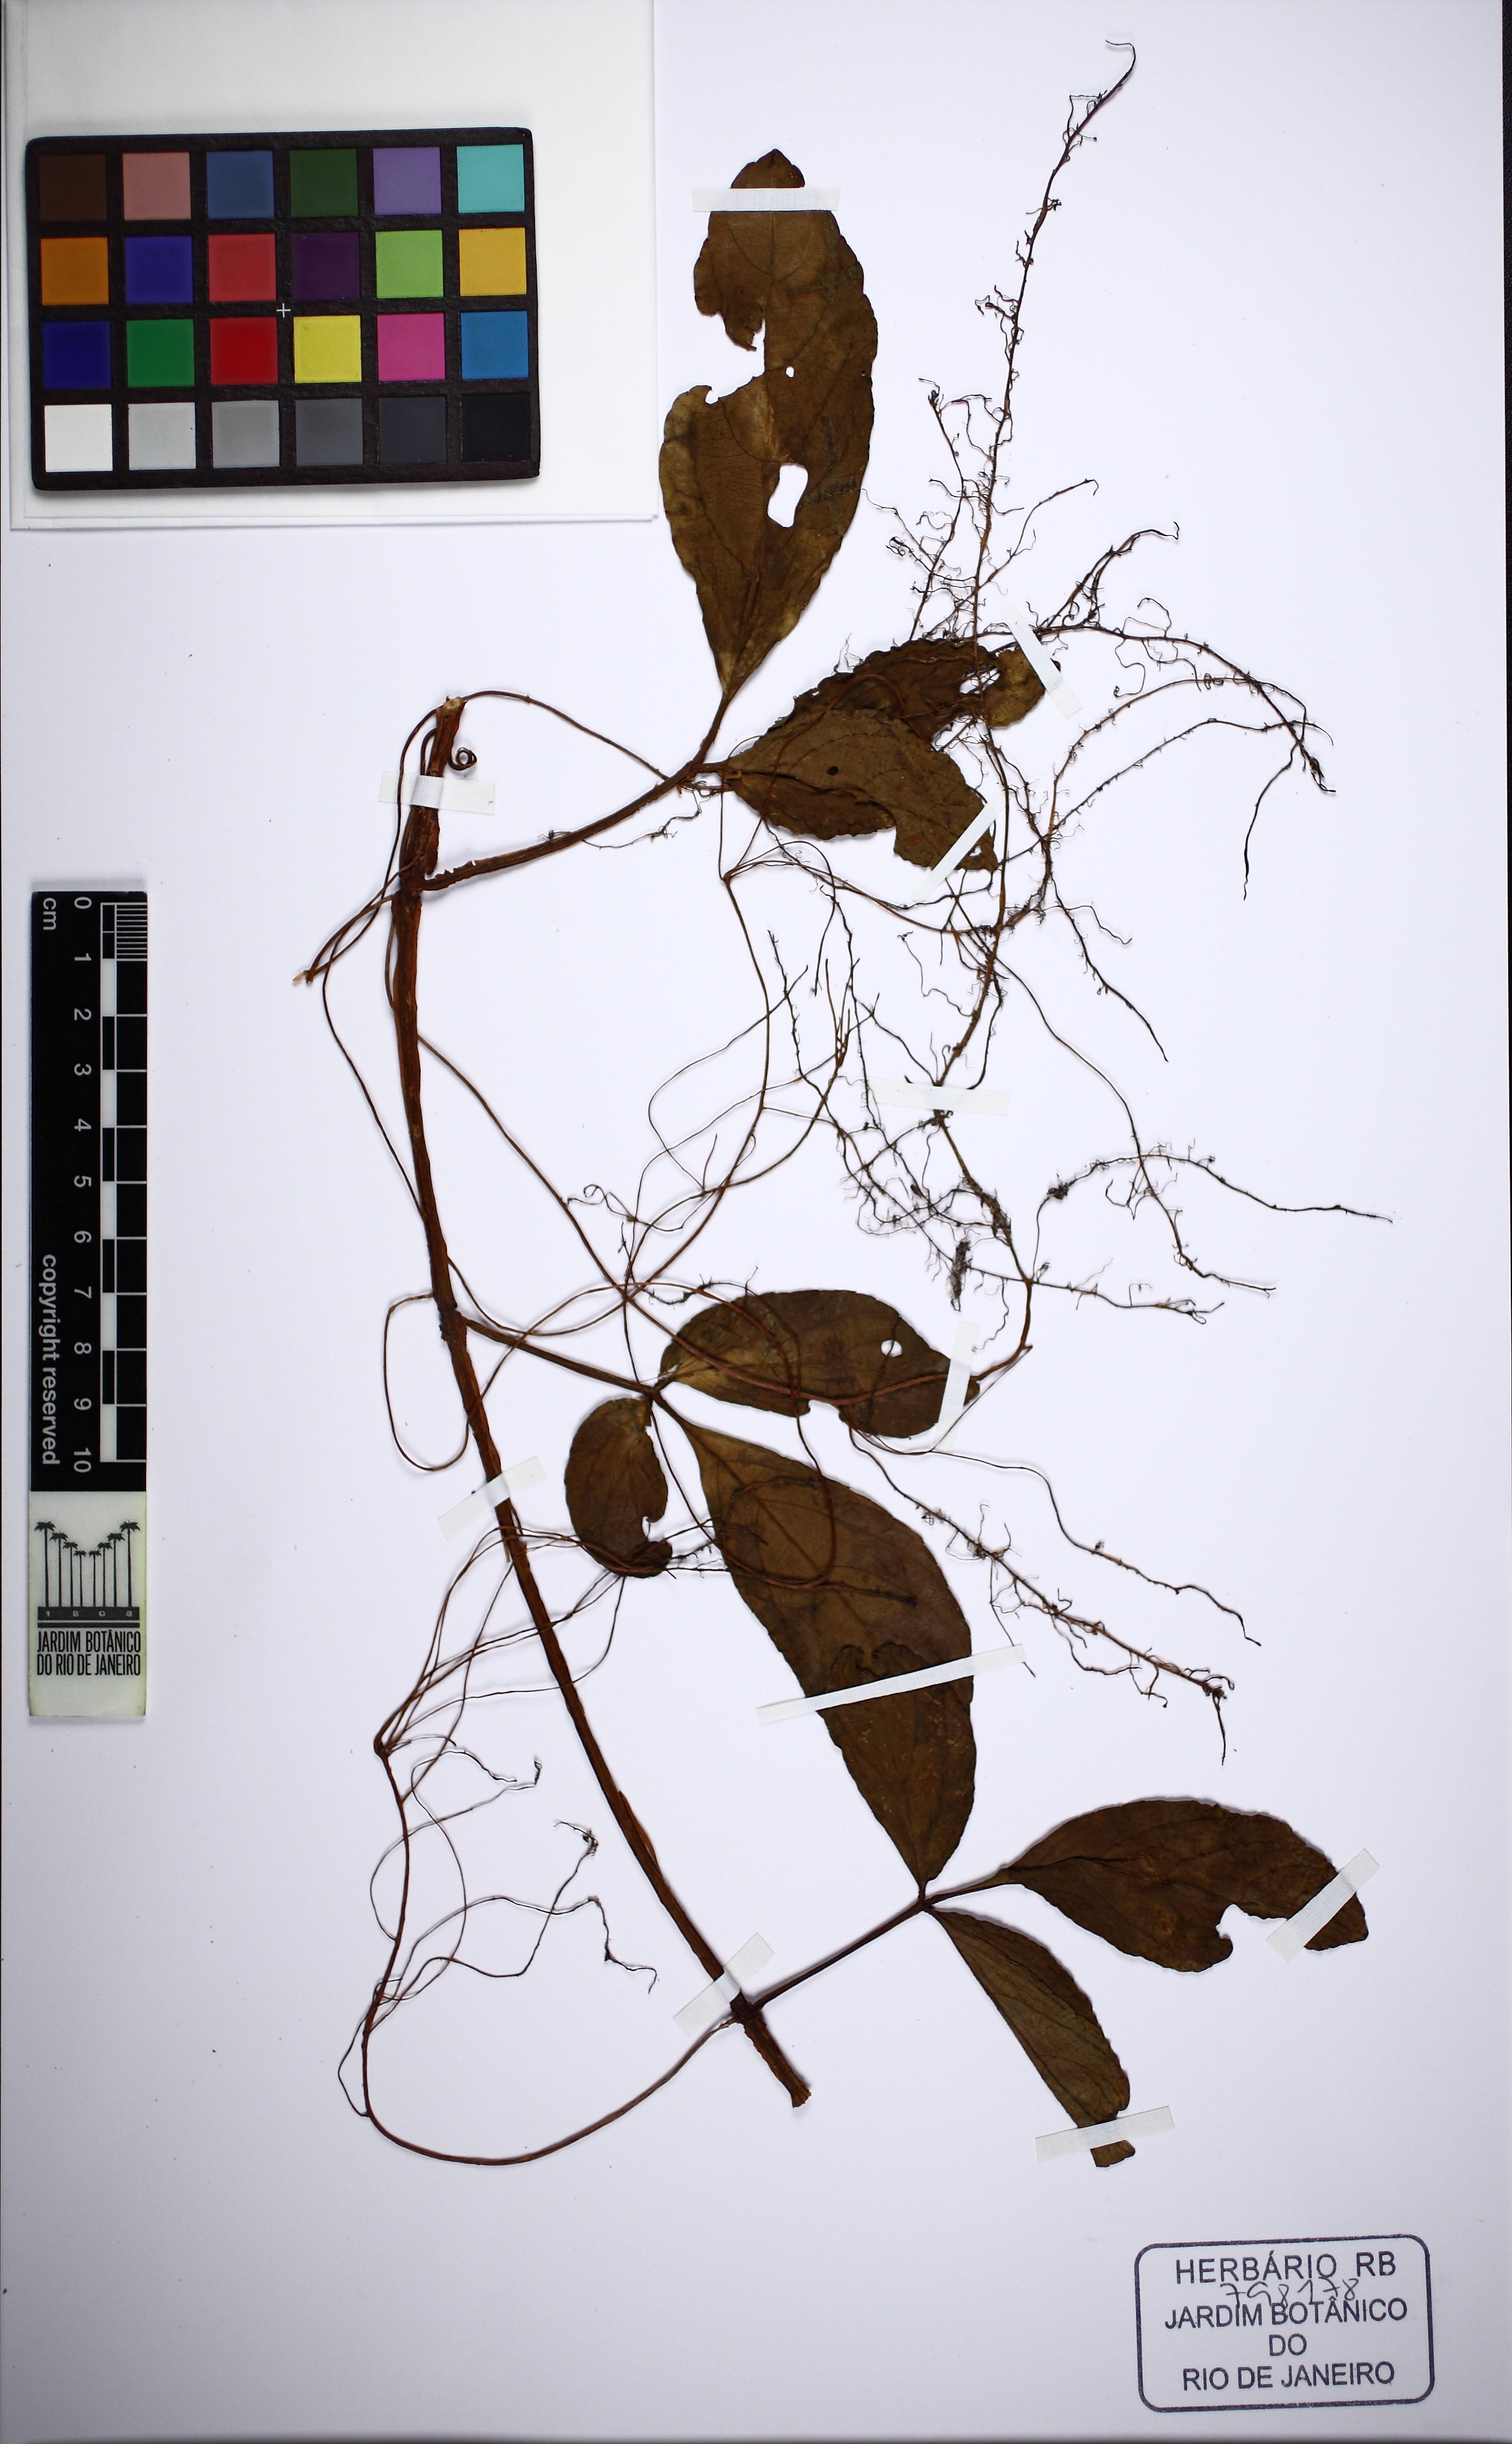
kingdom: Plantae
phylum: Tracheophyta
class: Magnoliopsida
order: Vitales
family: Vitaceae
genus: Cissus
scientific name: Cissus erosa
